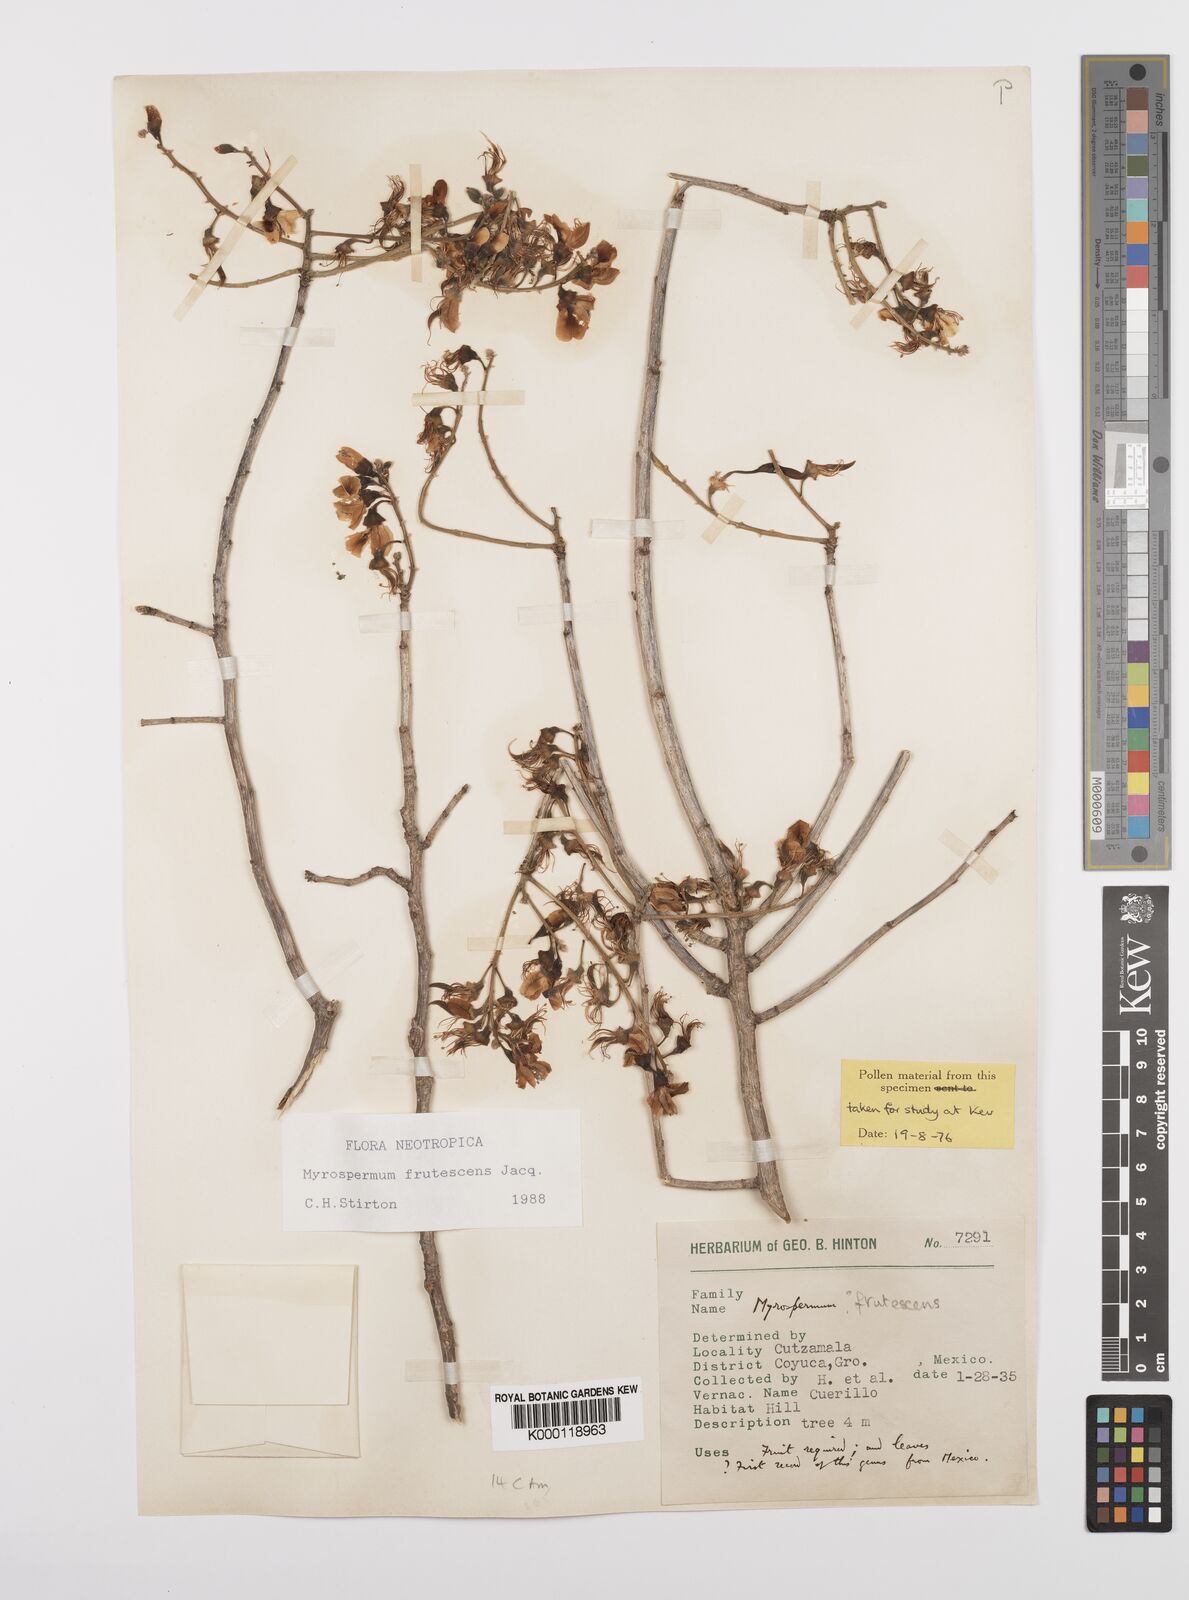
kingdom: Plantae
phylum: Tracheophyta
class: Magnoliopsida
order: Fabales
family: Fabaceae
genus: Myrospermum
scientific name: Myrospermum frutescens
